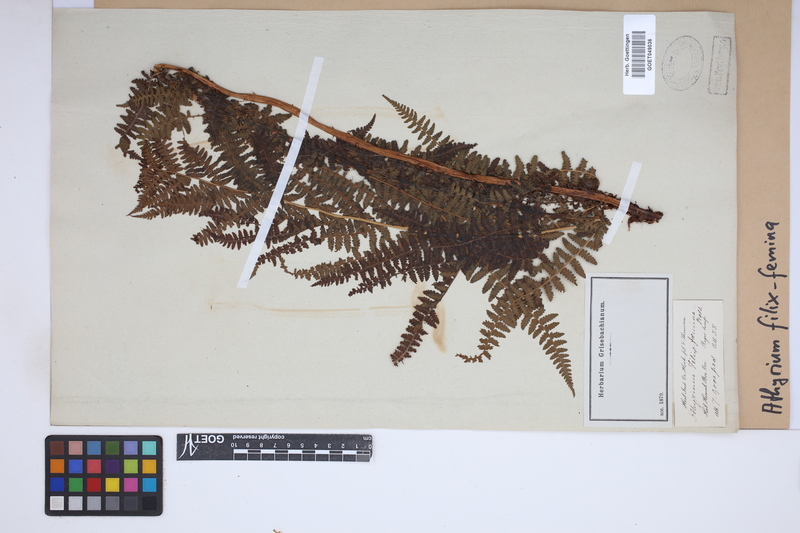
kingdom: Plantae
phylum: Tracheophyta
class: Polypodiopsida
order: Polypodiales
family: Athyriaceae
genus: Athyrium
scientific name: Athyrium filix-femina
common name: Lady fern
